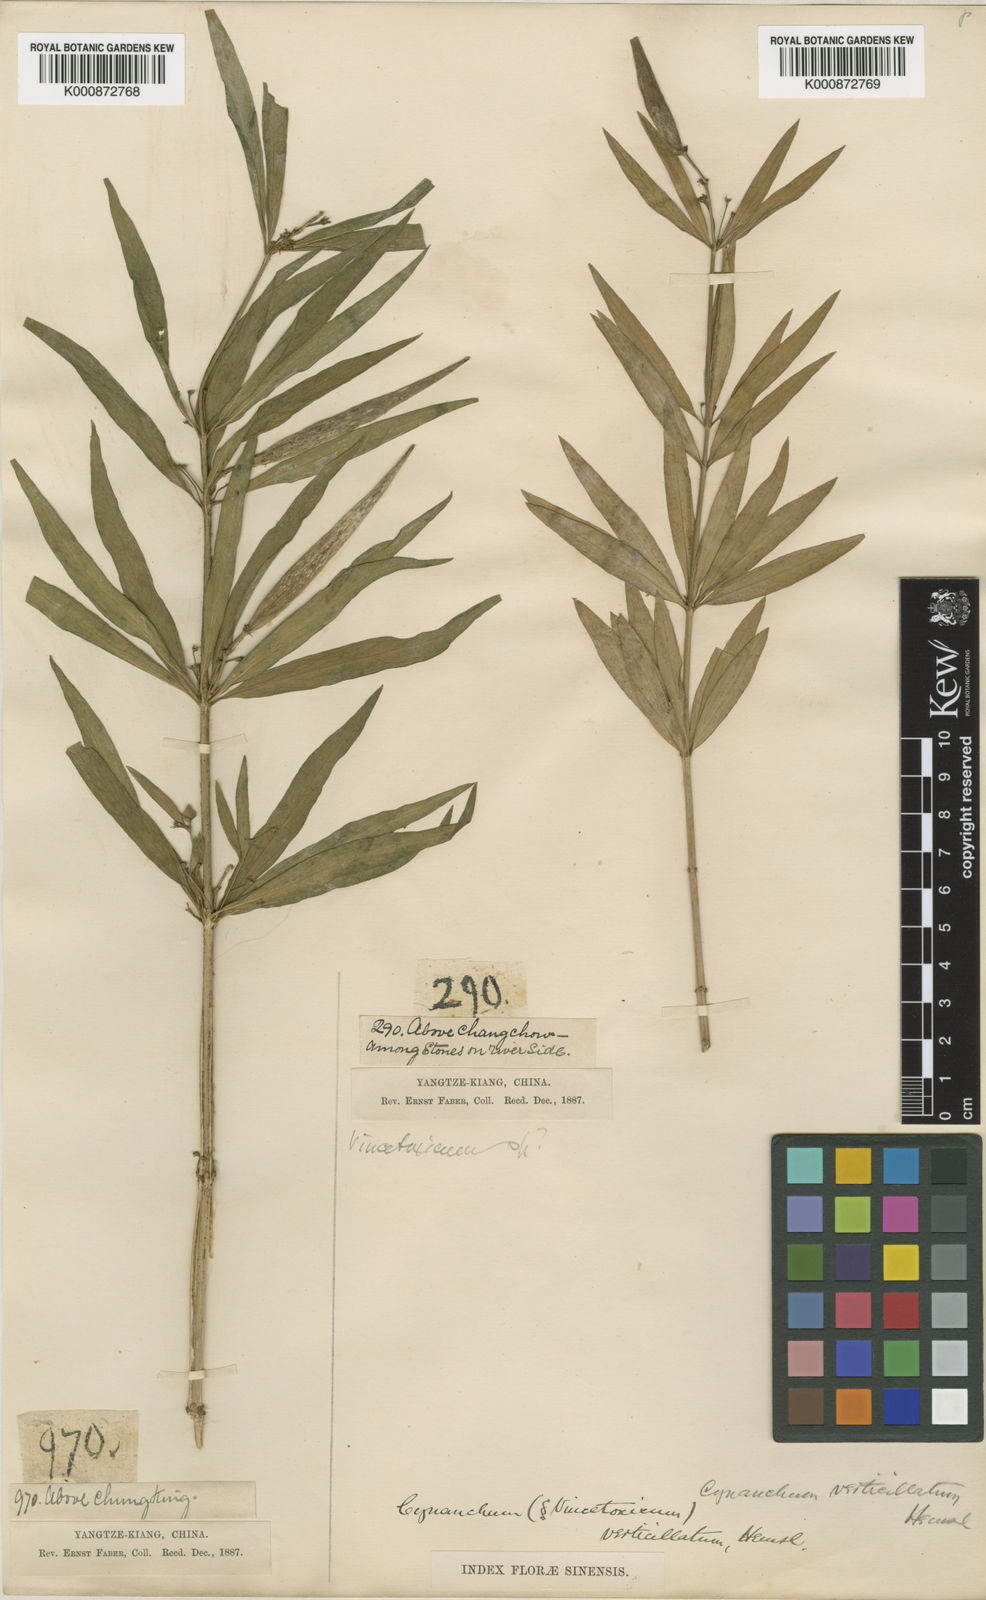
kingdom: Plantae
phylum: Tracheophyta
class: Magnoliopsida
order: Gentianales
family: Apocynaceae
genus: Vincetoxicum
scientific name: Vincetoxicum verticillatum
